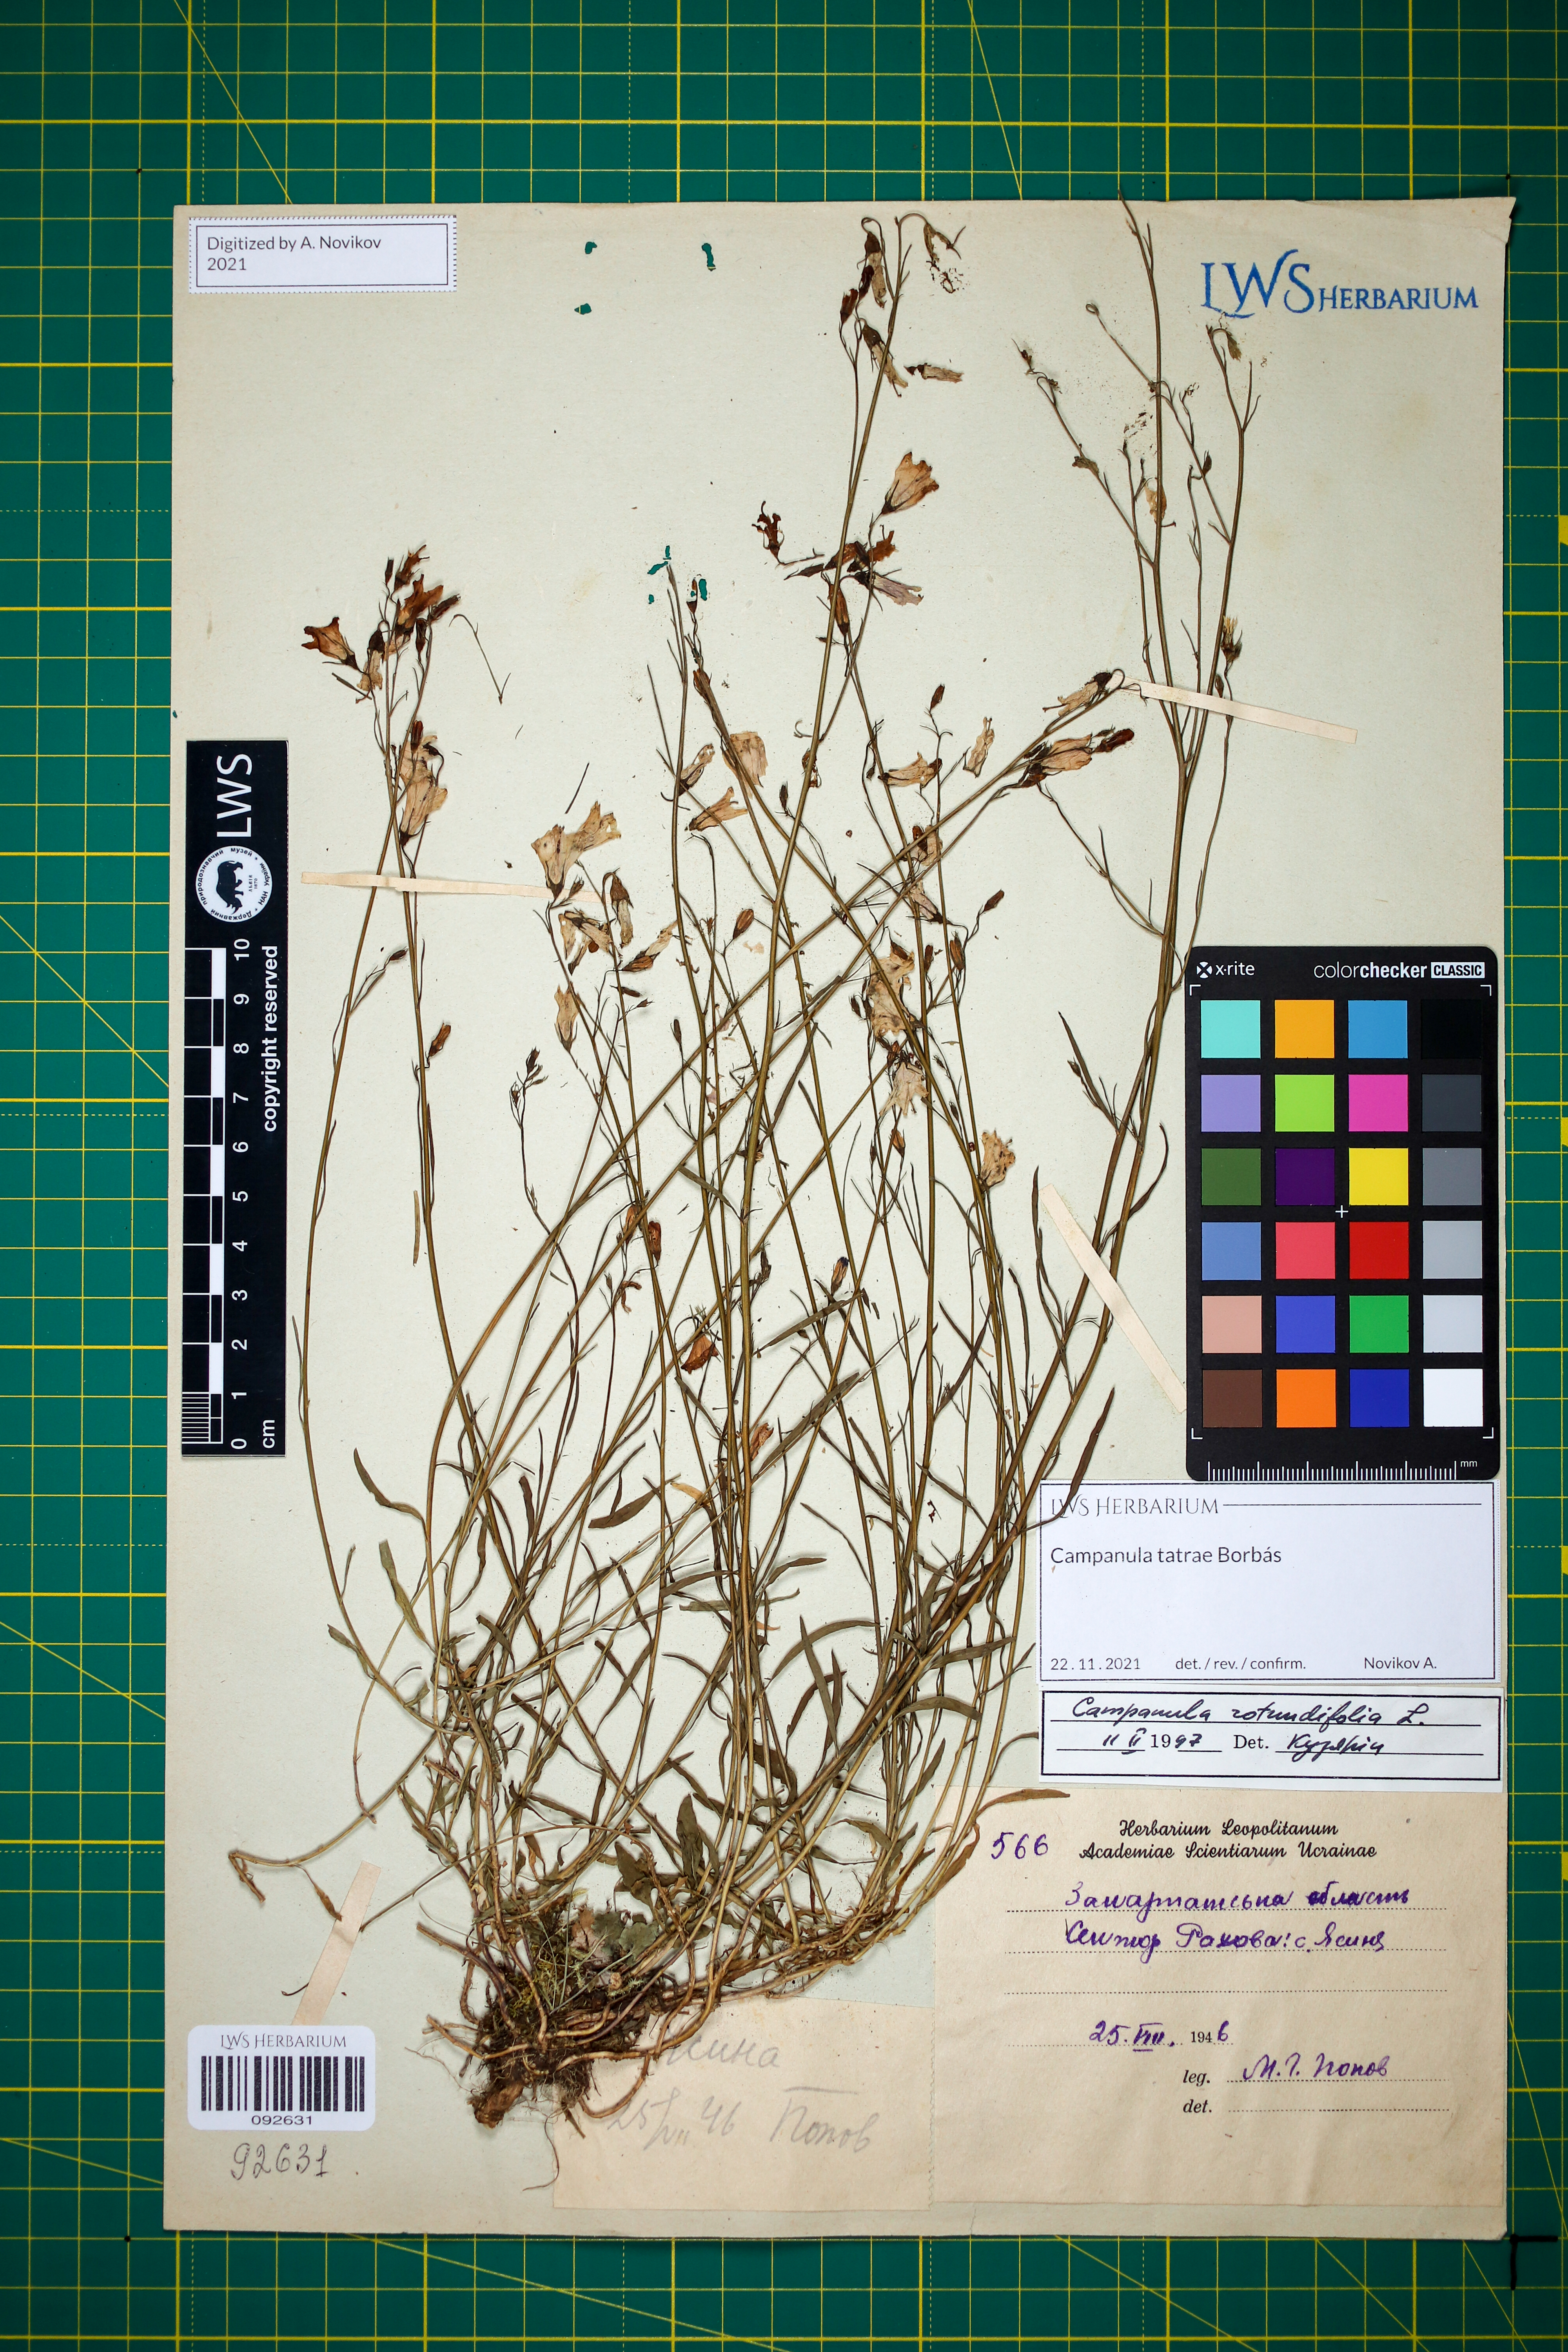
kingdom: Plantae
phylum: Tracheophyta
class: Magnoliopsida
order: Asterales
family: Campanulaceae
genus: Campanula
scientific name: Campanula tatrae
